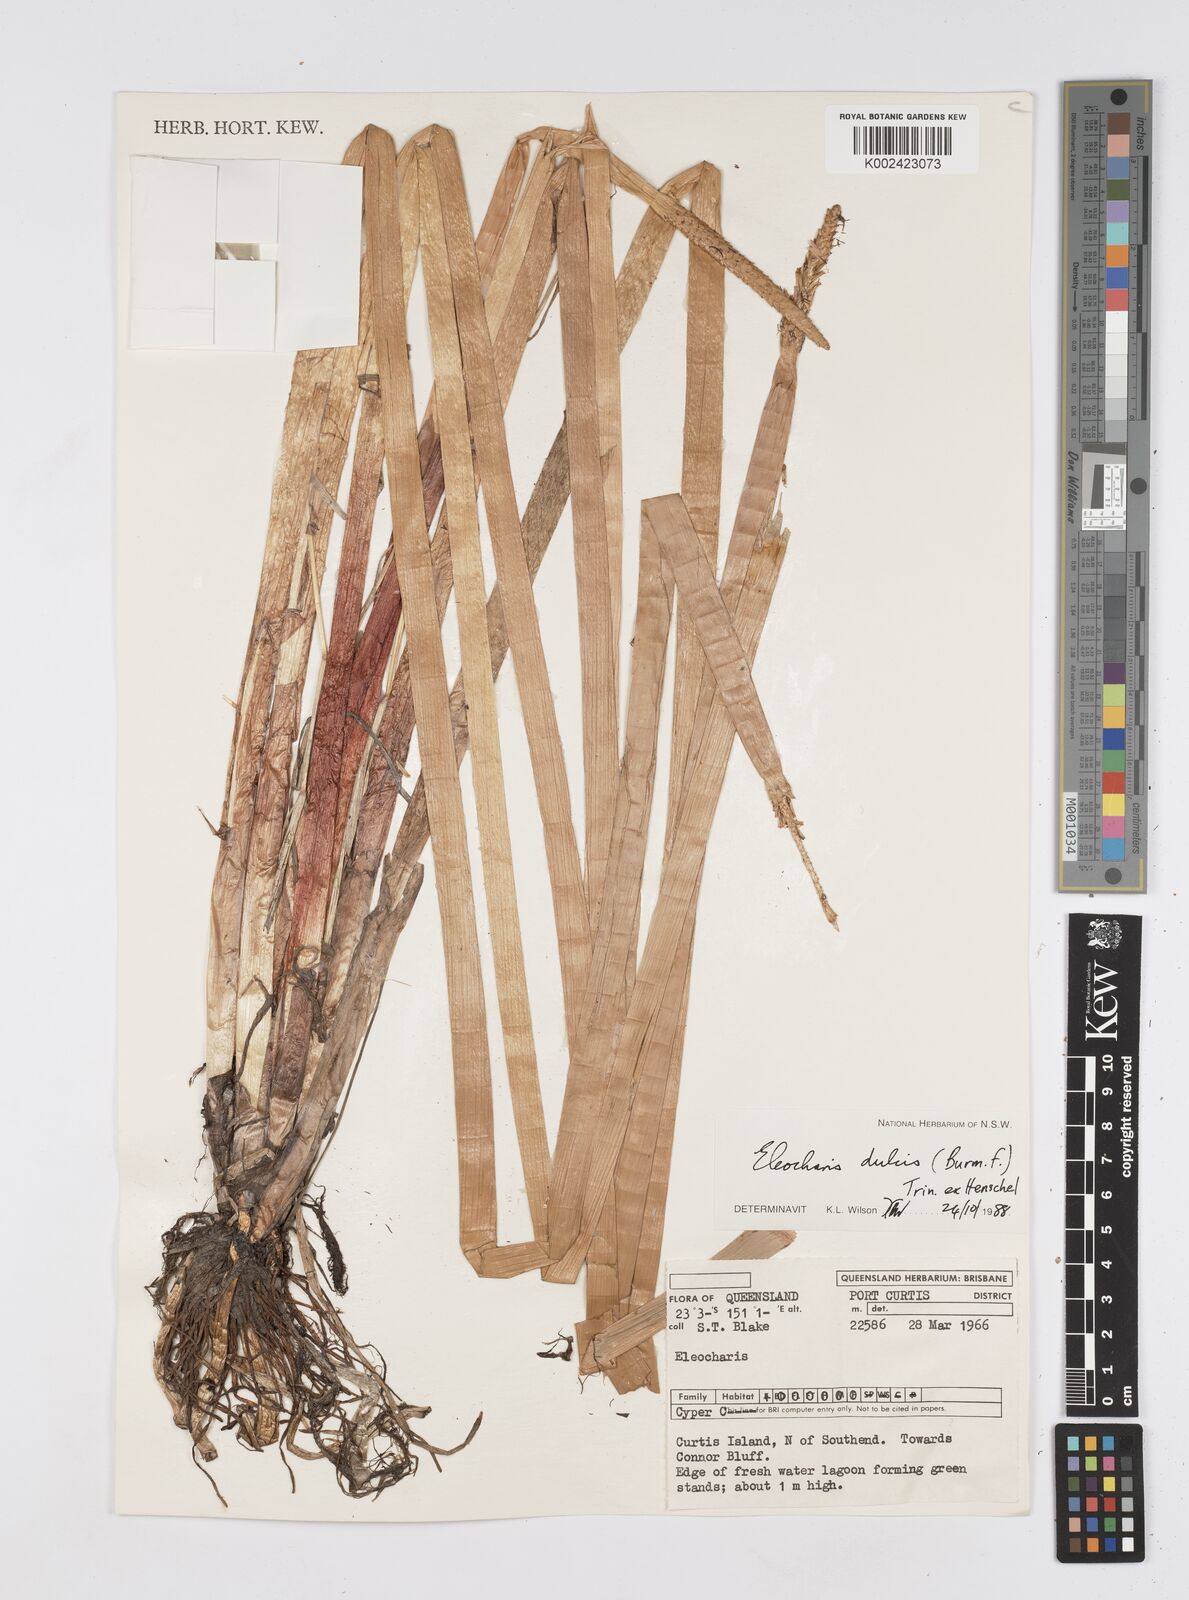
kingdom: Plantae
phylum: Tracheophyta
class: Liliopsida
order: Poales
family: Cyperaceae
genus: Eleocharis
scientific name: Eleocharis dulcis
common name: Chinese water chestnut
